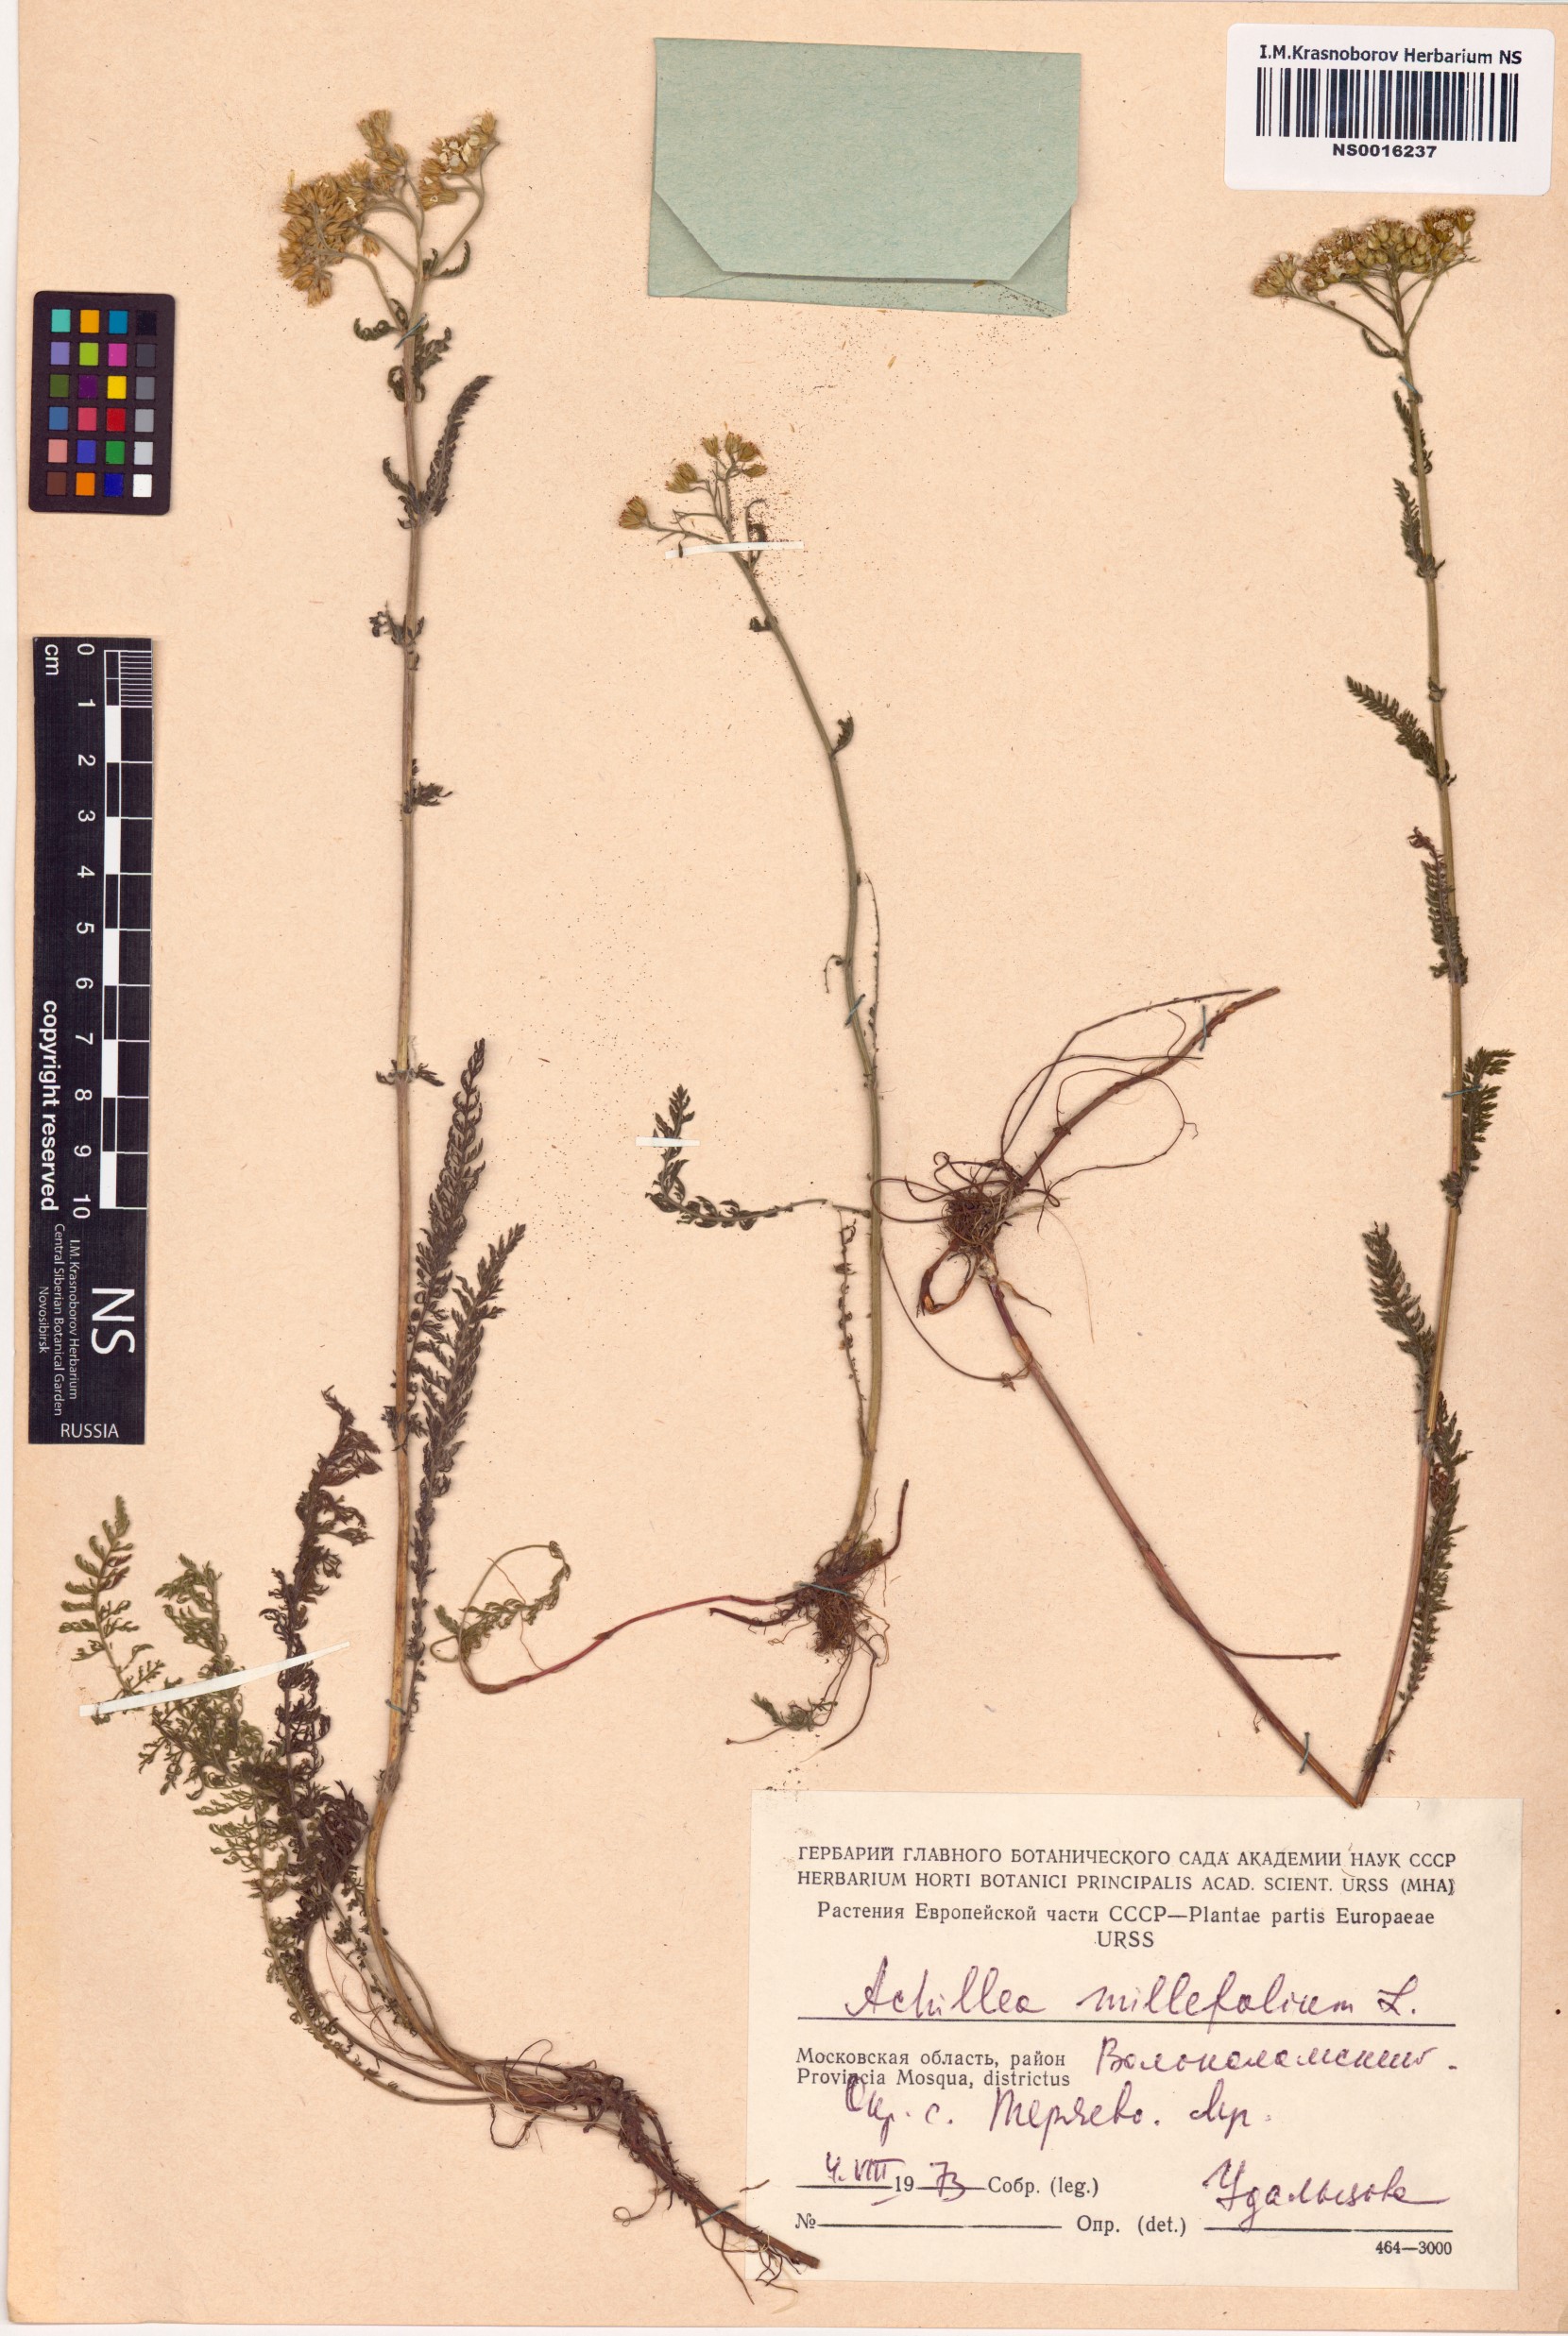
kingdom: Plantae
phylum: Tracheophyta
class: Magnoliopsida
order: Asterales
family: Asteraceae
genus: Achillea
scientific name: Achillea millefolium
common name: Yarrow
